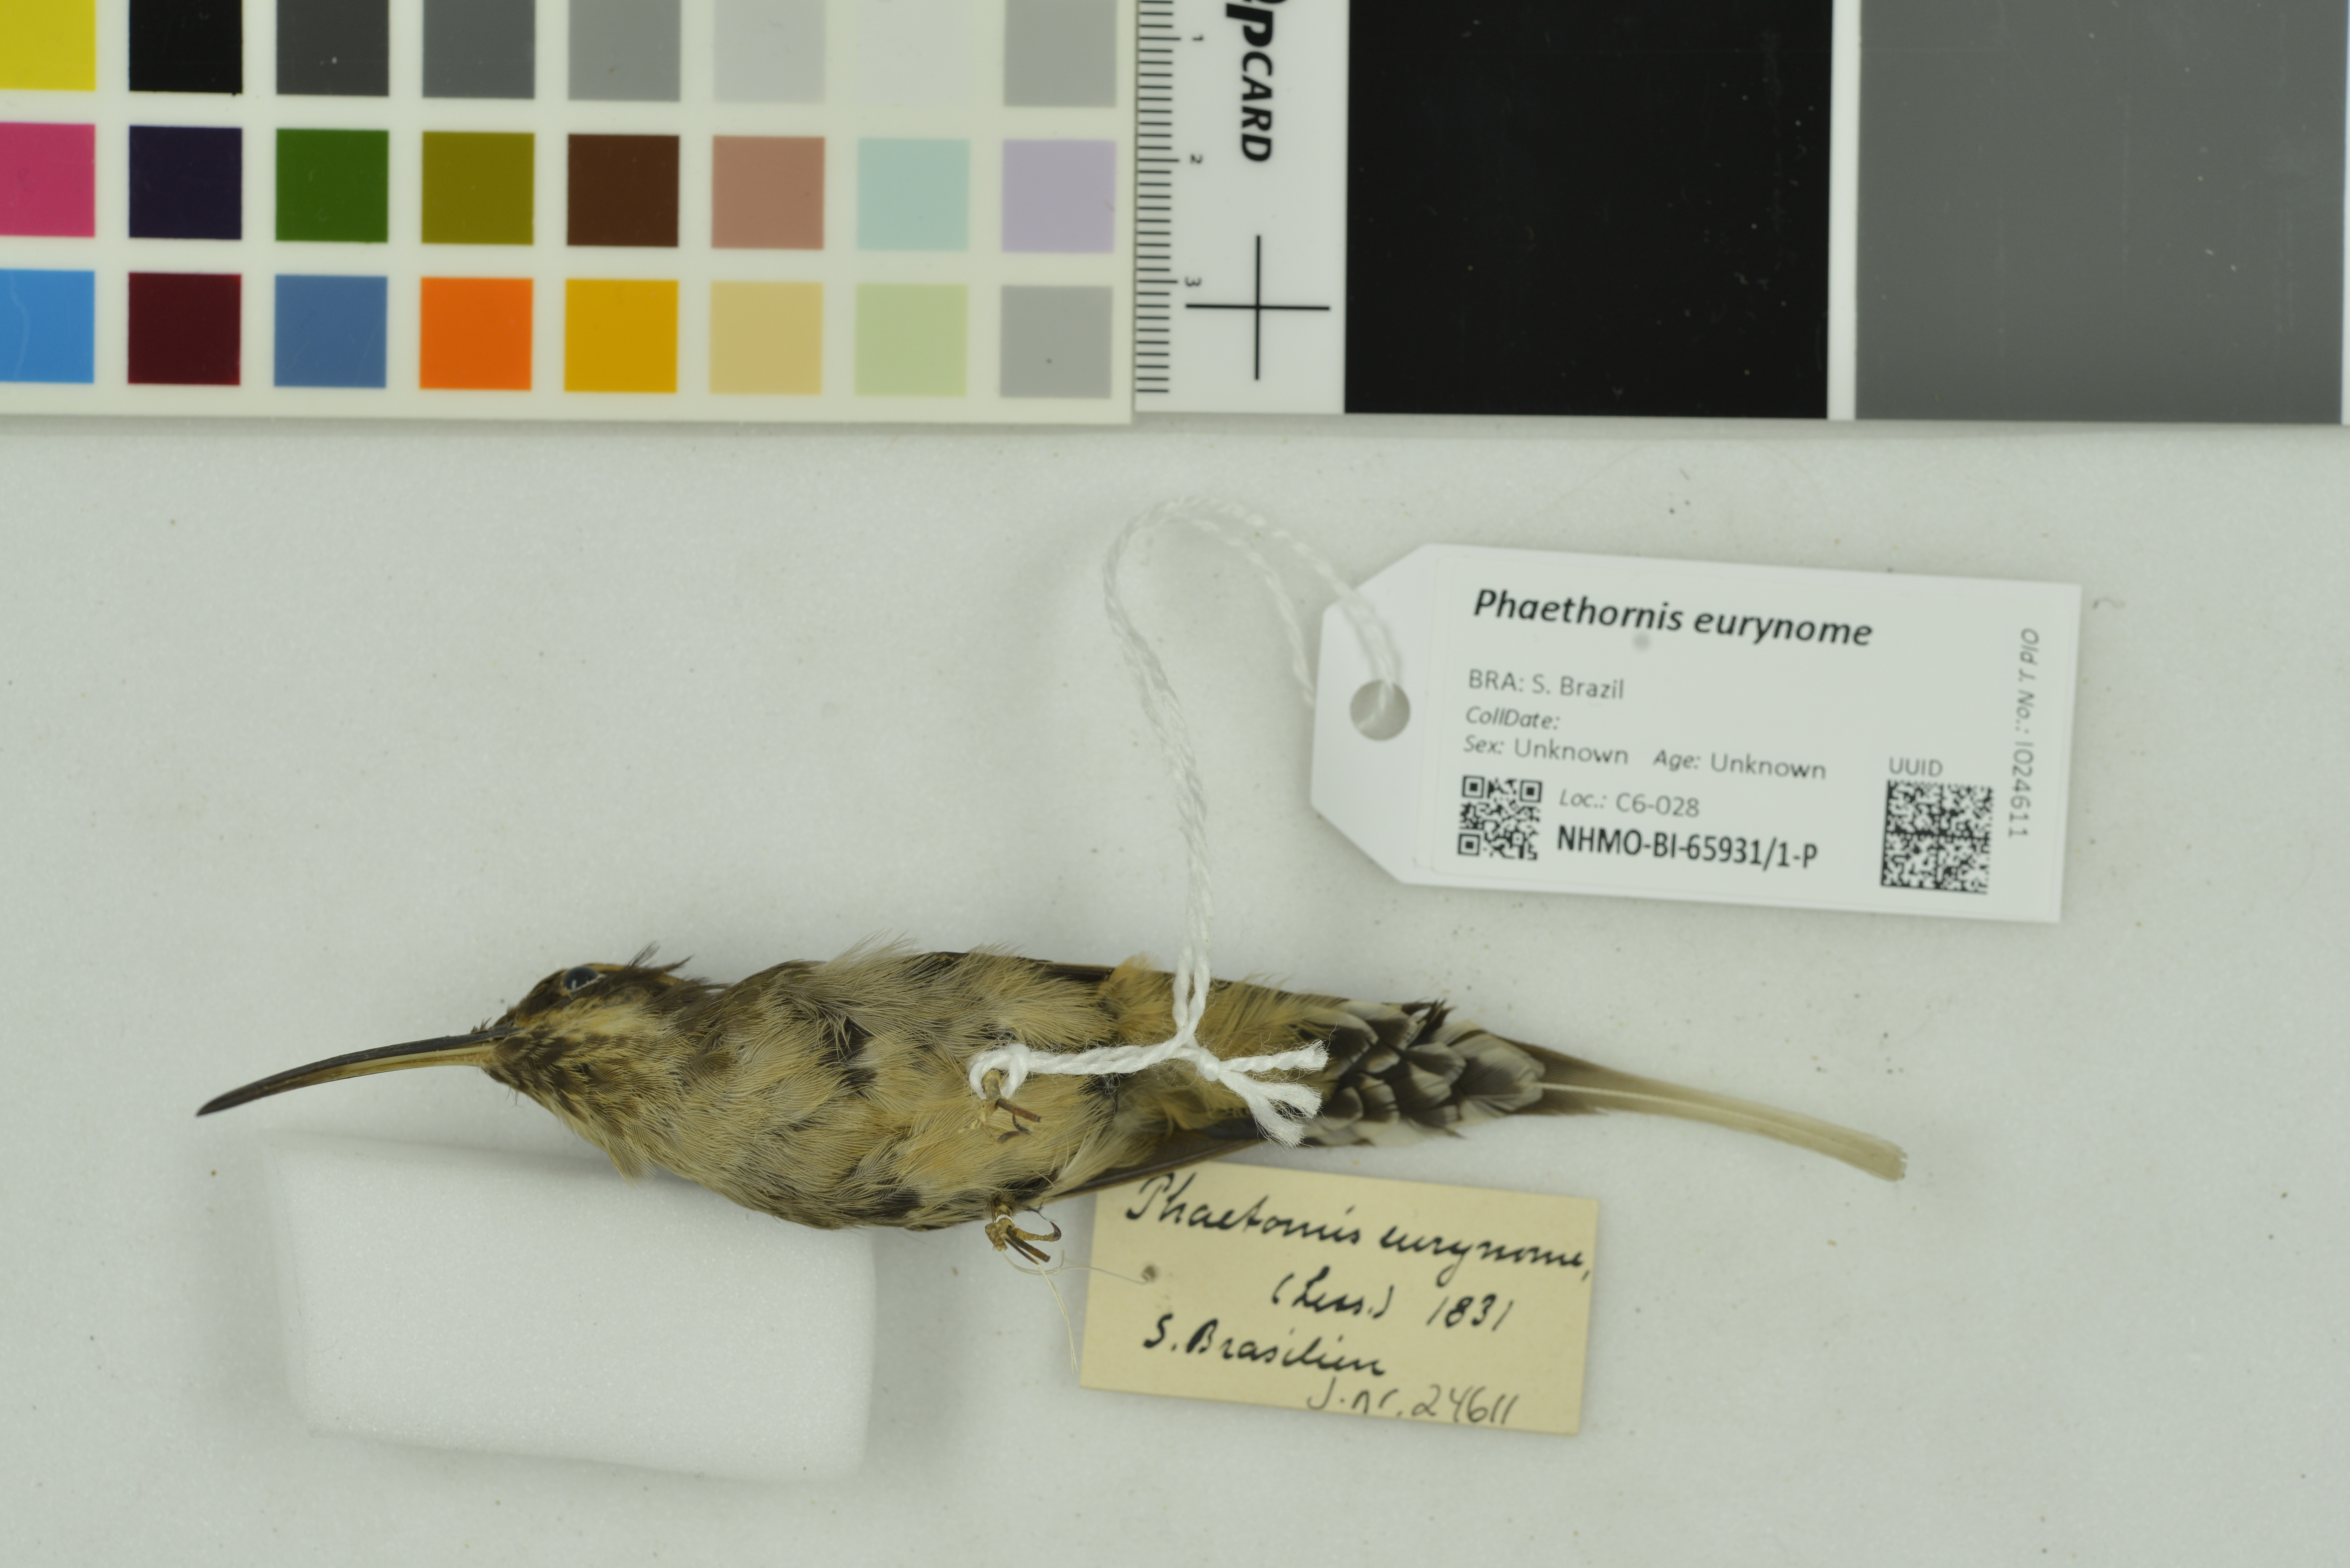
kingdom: Animalia
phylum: Chordata
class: Aves
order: Apodiformes
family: Trochilidae
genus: Phaethornis
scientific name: Phaethornis eurynome
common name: Scale-throated hermit
